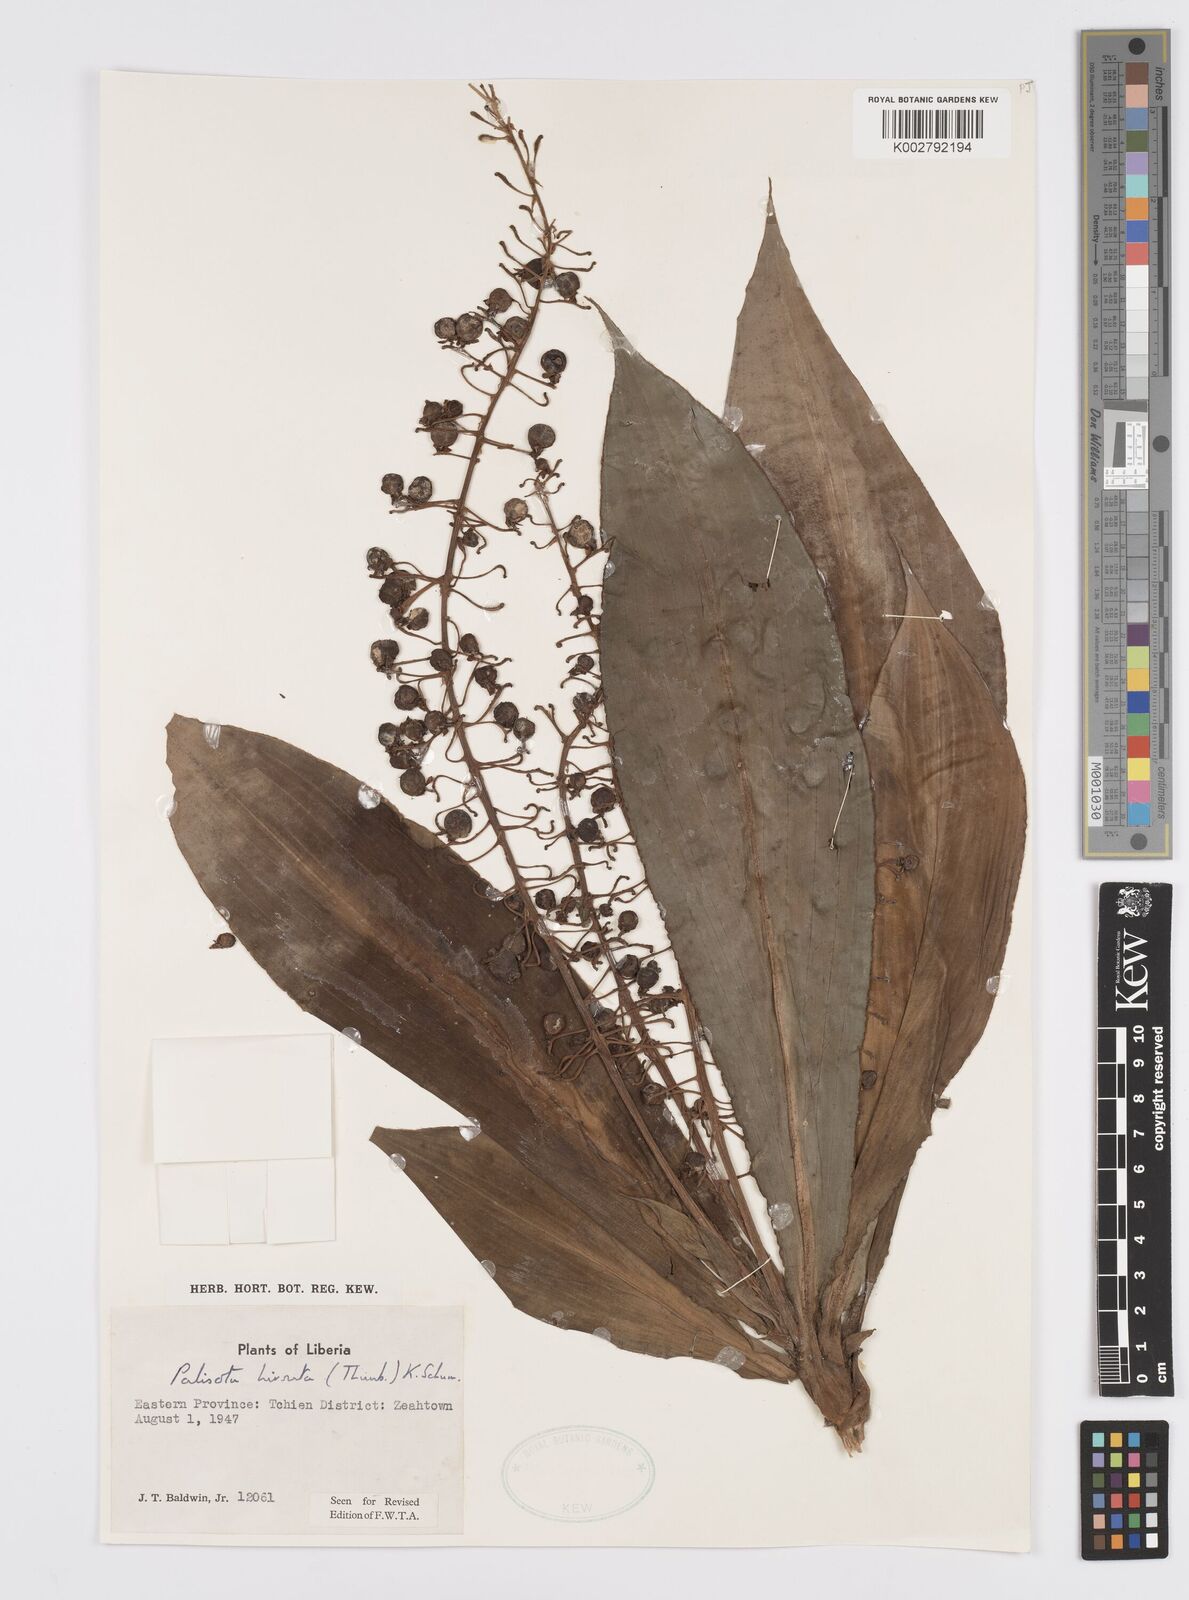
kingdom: Plantae
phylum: Tracheophyta
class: Liliopsida
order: Commelinales
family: Commelinaceae
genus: Palisota
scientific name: Palisota hirsuta
